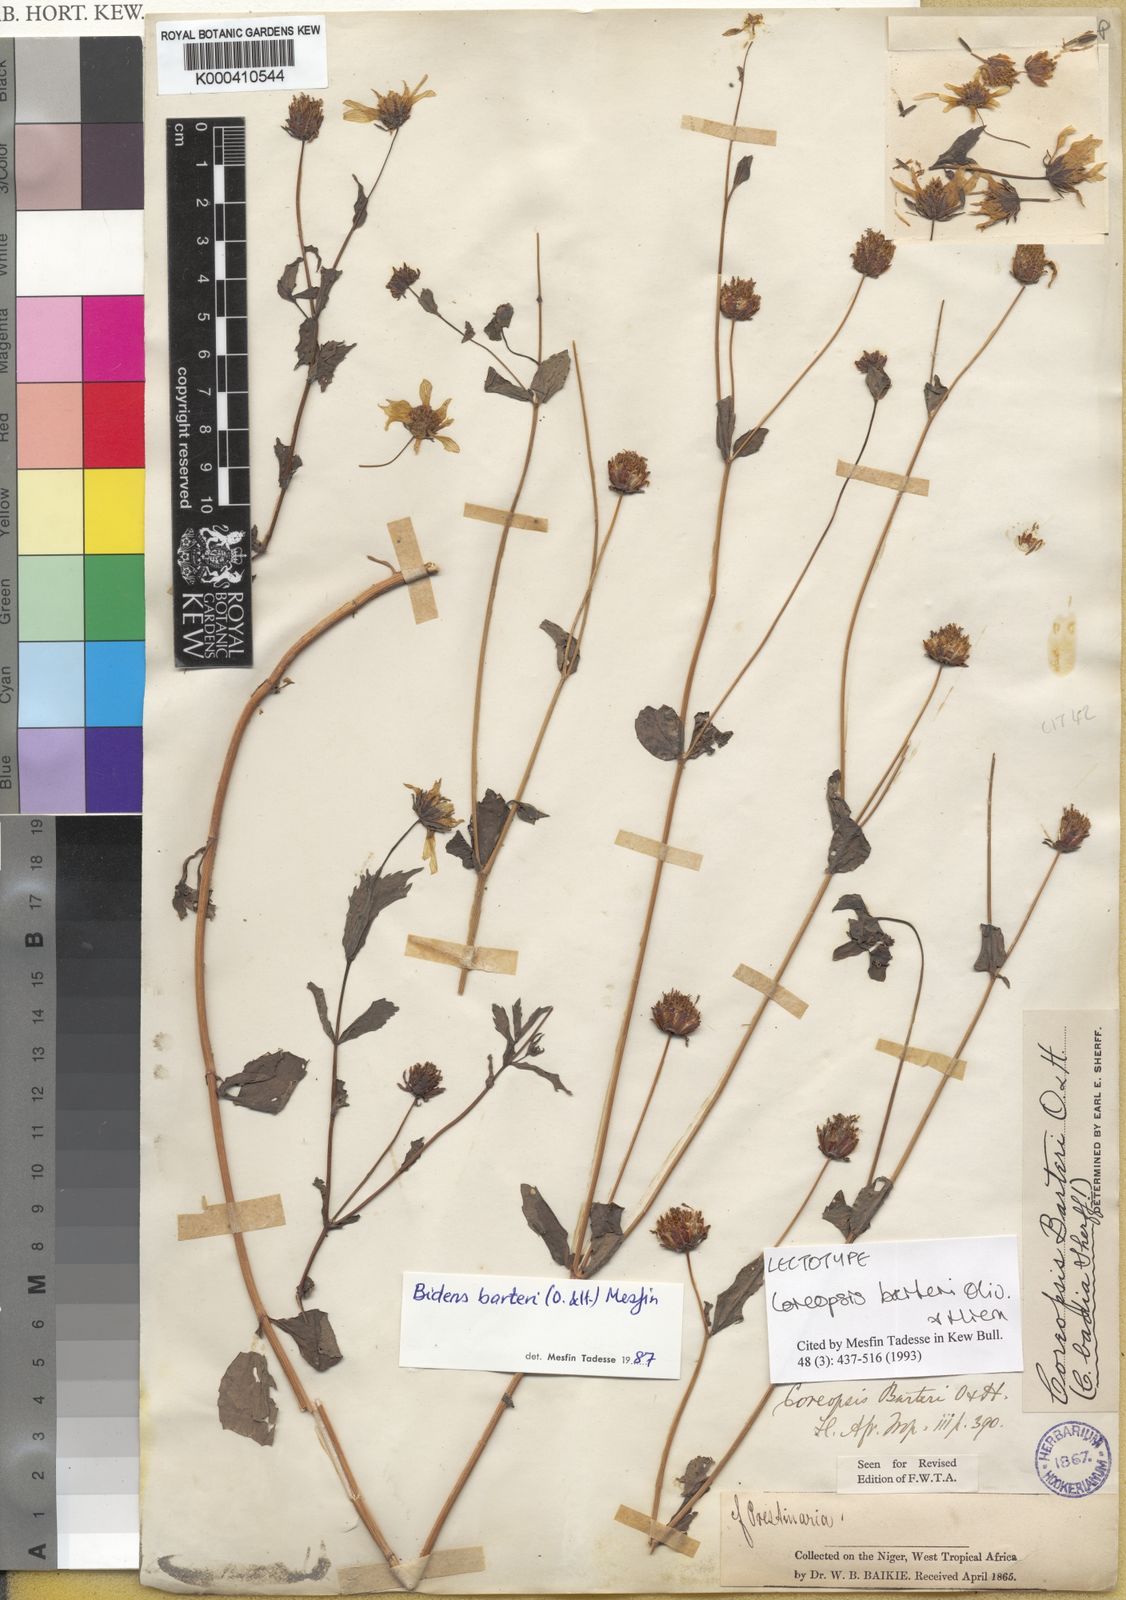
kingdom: Plantae
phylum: Tracheophyta
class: Magnoliopsida
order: Asterales
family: Asteraceae
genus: Bidens
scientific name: Bidens barteri
